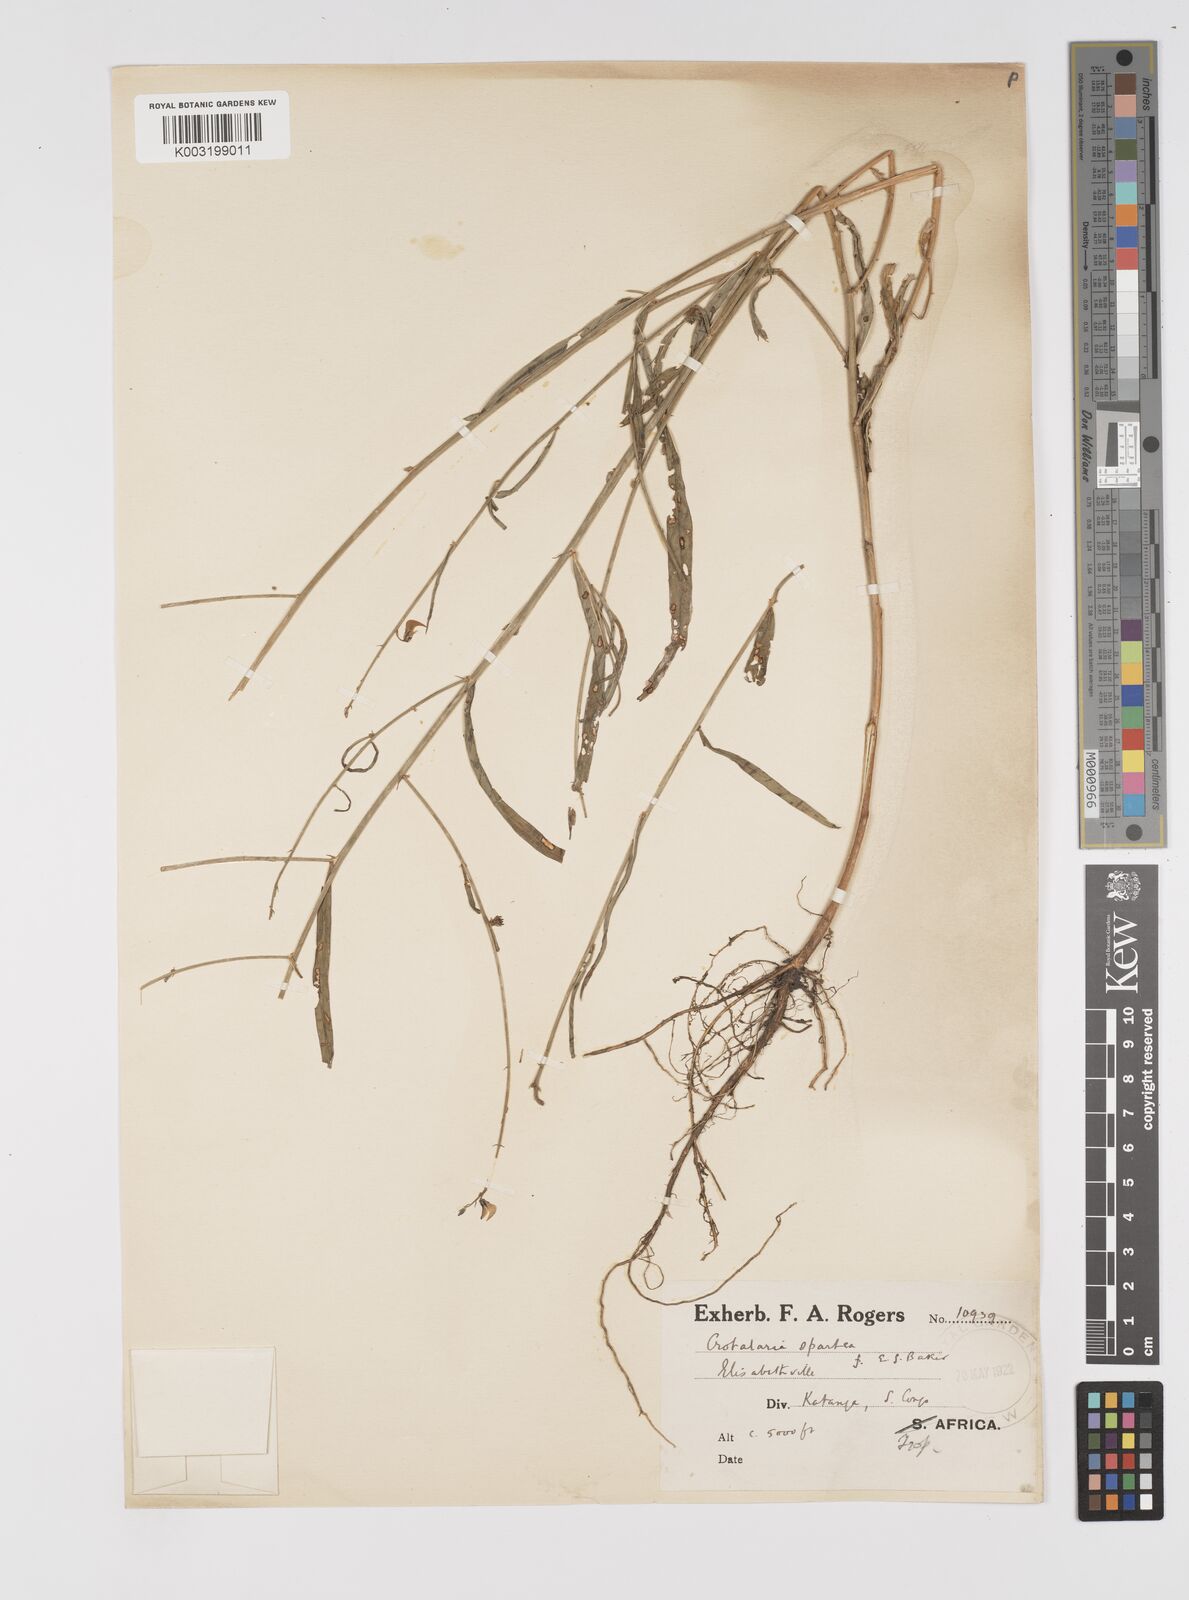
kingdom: Plantae
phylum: Tracheophyta
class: Magnoliopsida
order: Fabales
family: Fabaceae
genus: Crotalaria
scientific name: Crotalaria spartea
